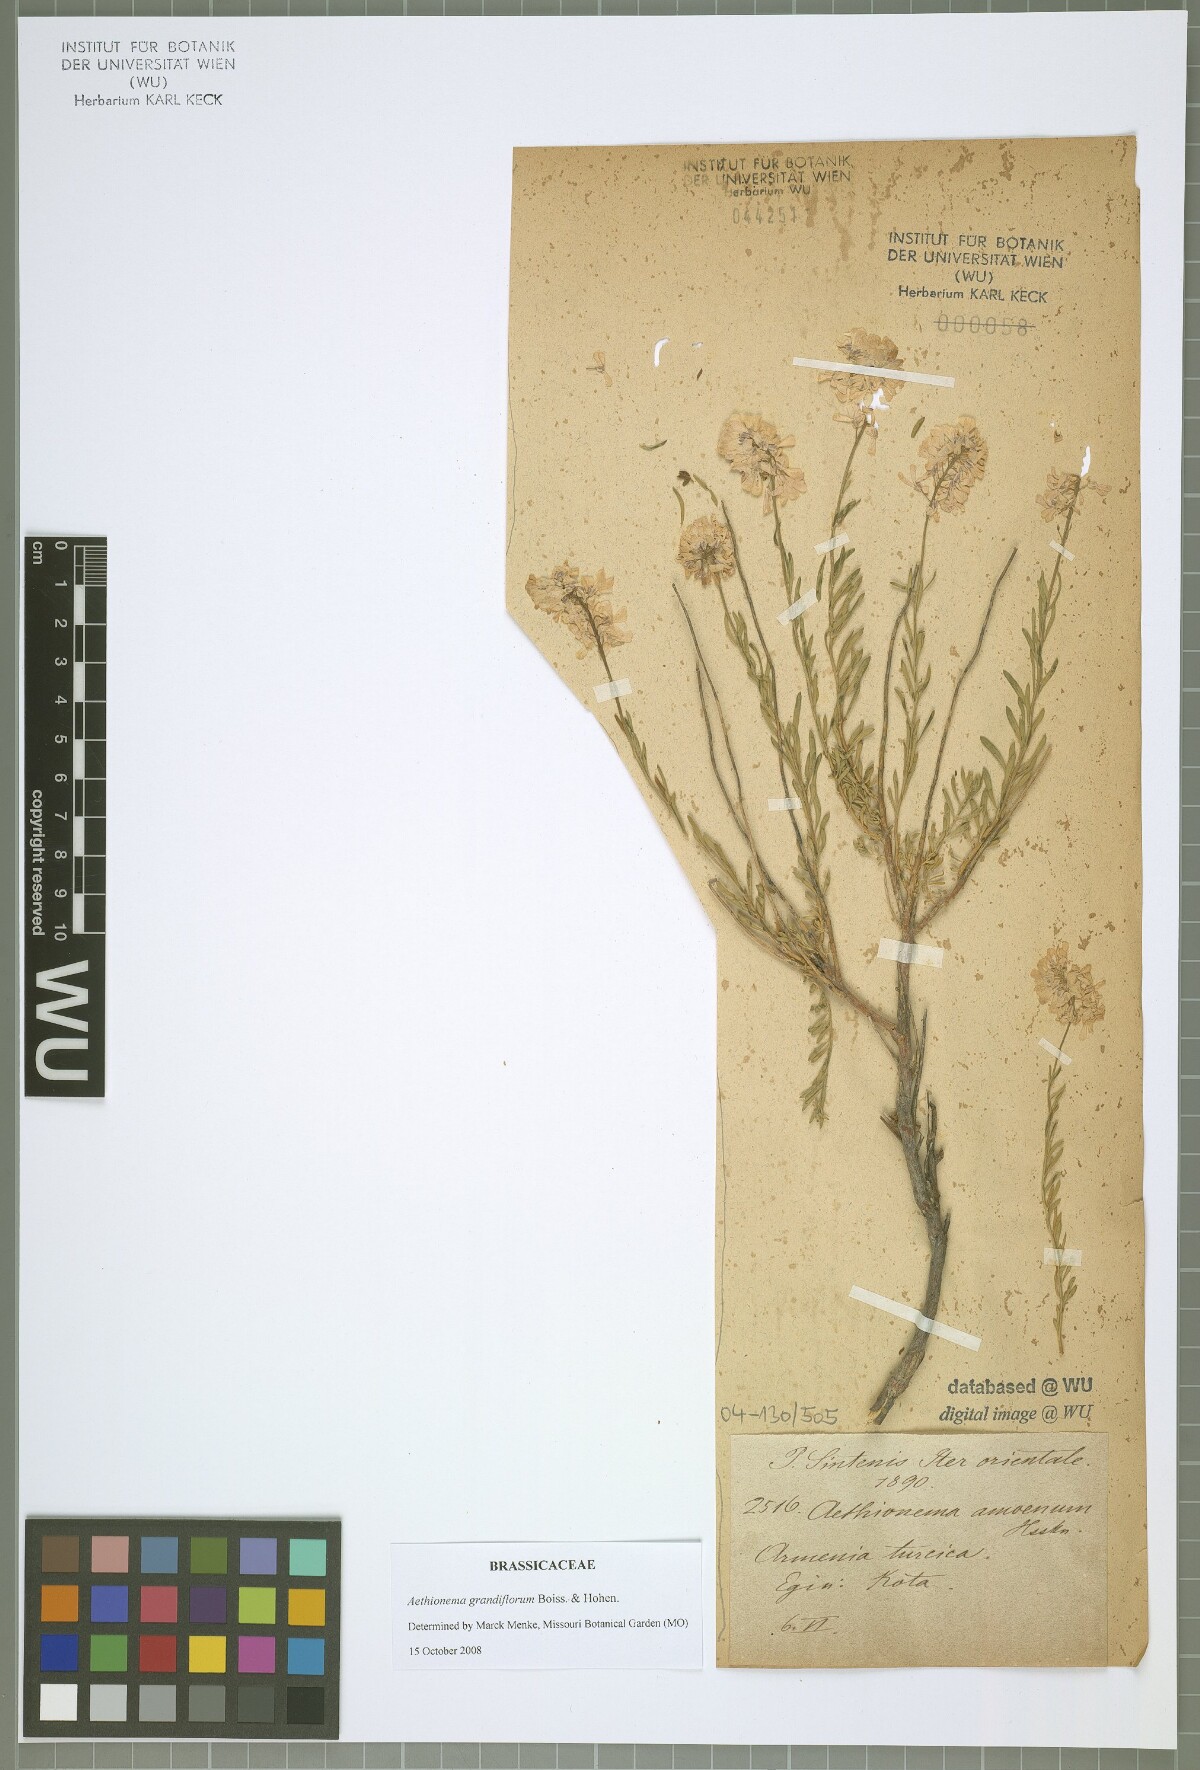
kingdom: Plantae
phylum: Tracheophyta
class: Magnoliopsida
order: Brassicales
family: Brassicaceae
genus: Aethionema
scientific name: Aethionema amoenum
